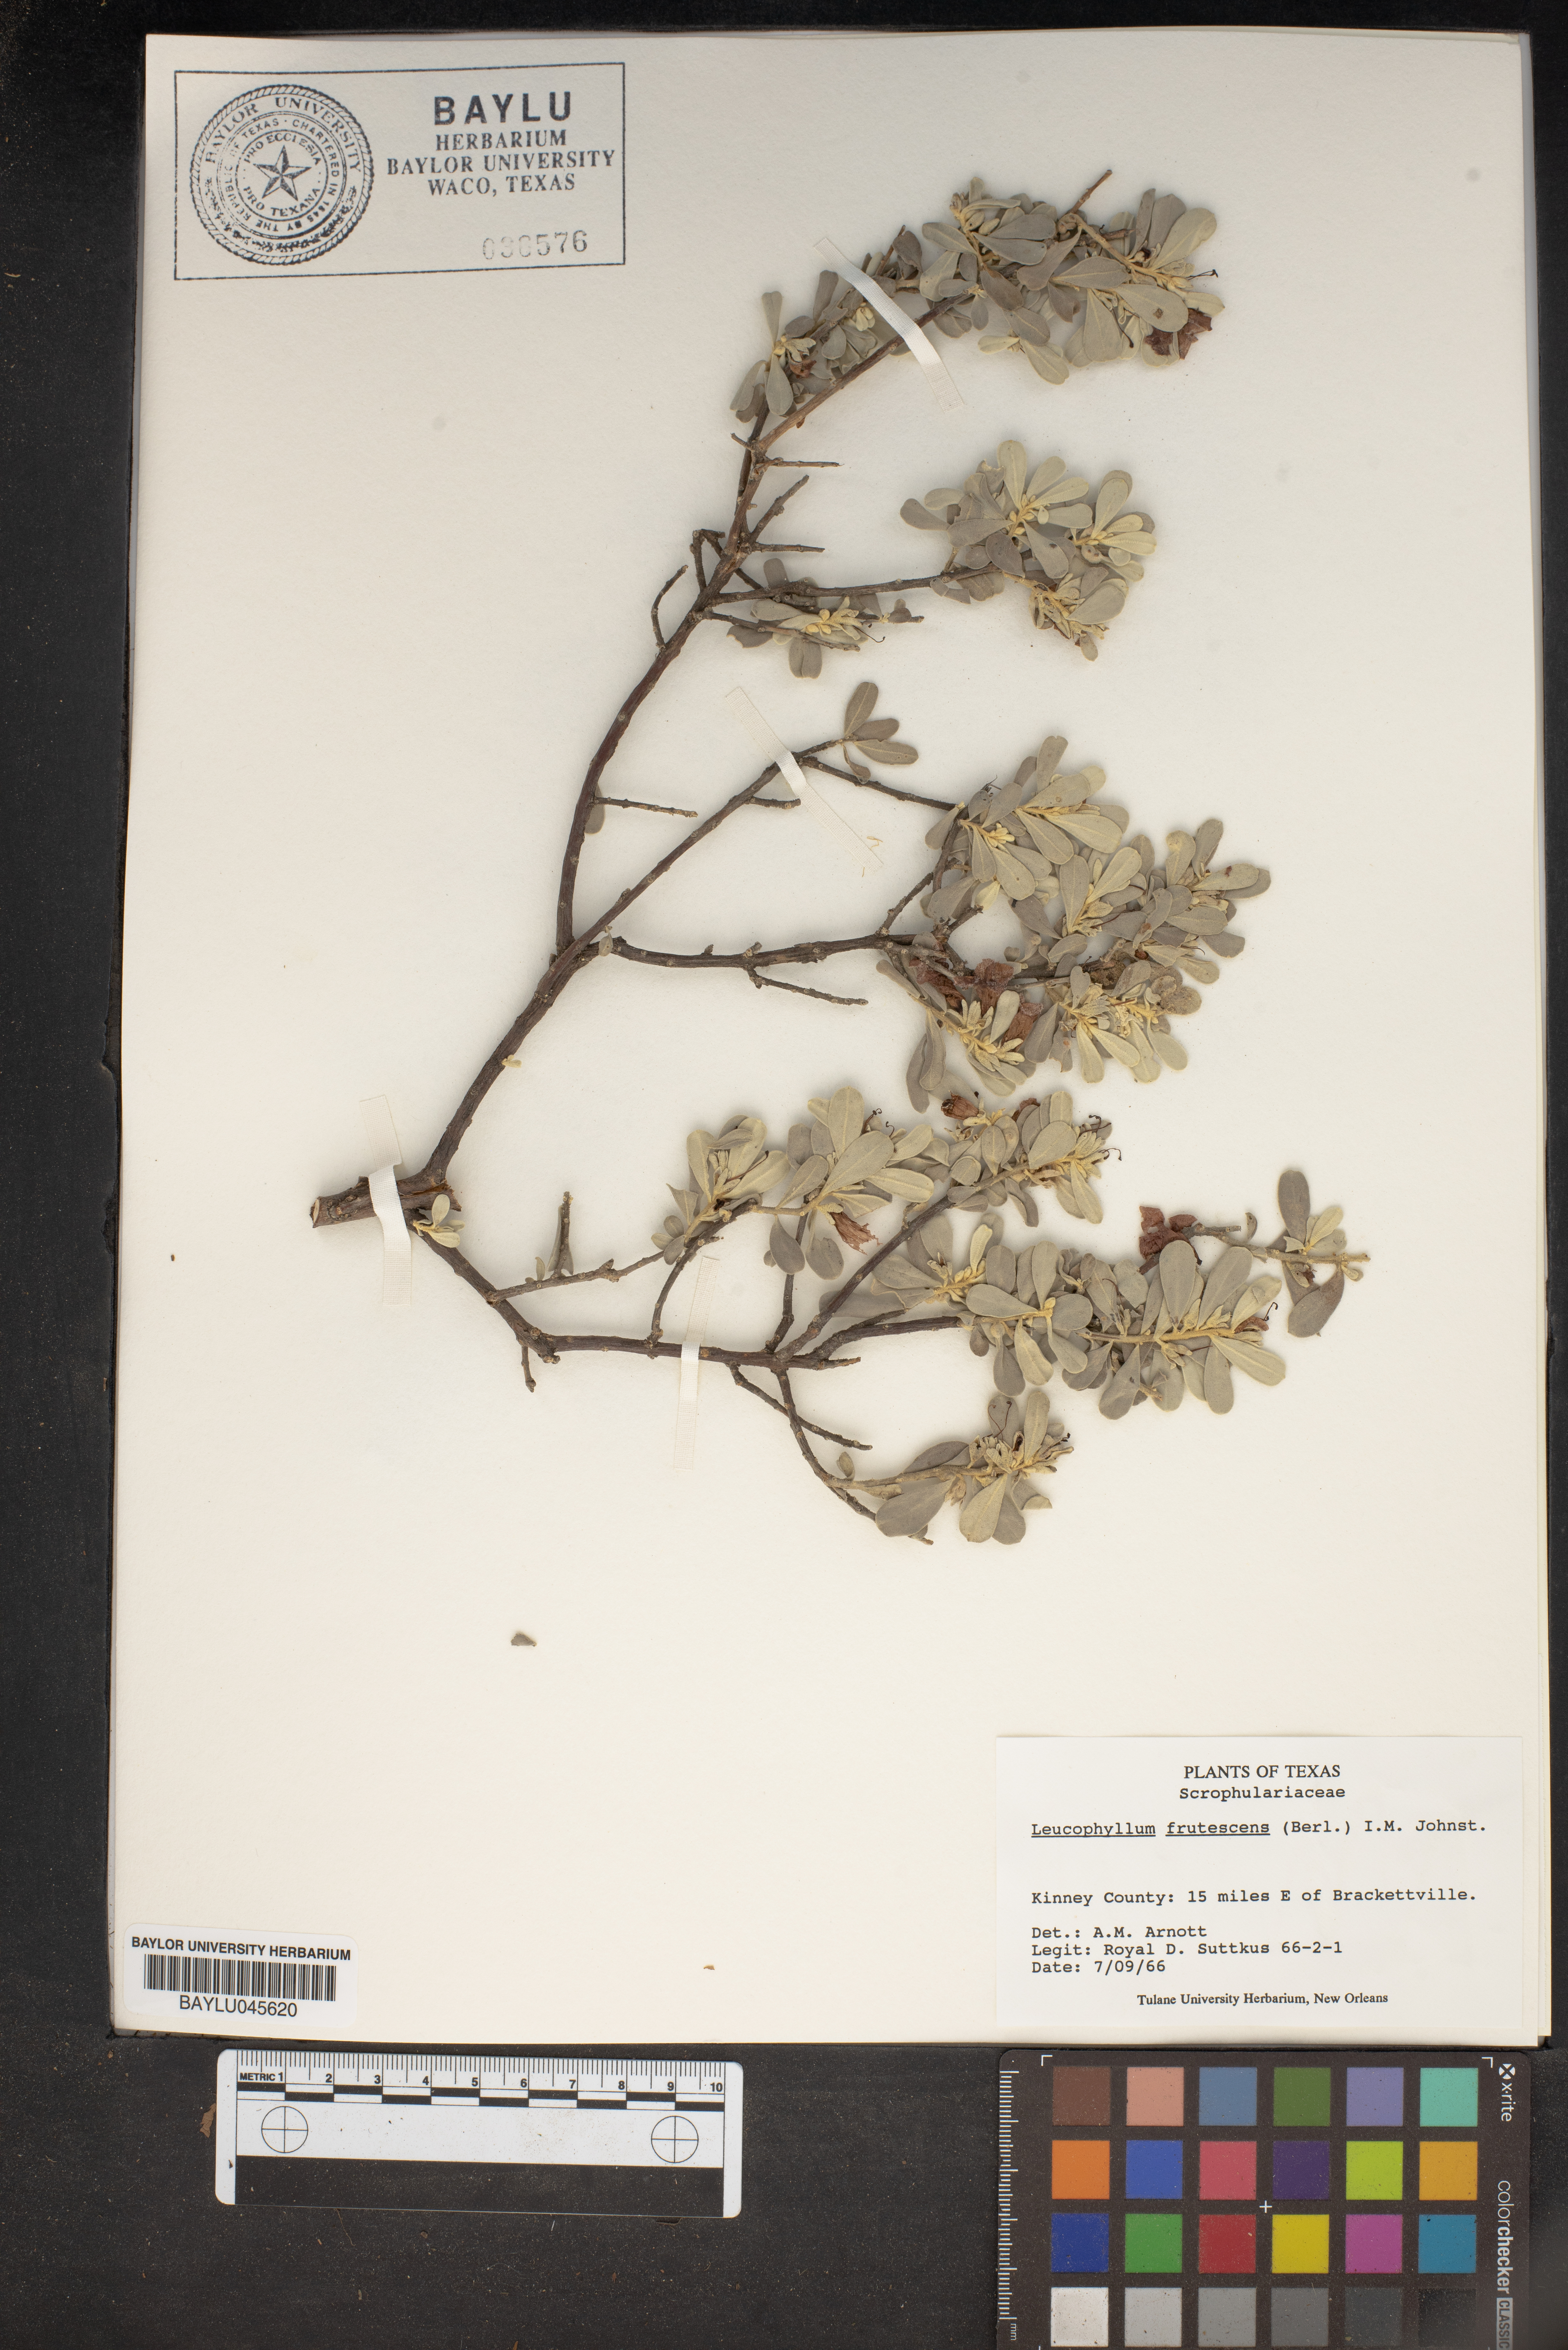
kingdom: Plantae
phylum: Tracheophyta
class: Magnoliopsida
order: Lamiales
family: Scrophulariaceae
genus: Leucophyllum
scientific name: Leucophyllum frutescens
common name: Texas silverleaf
